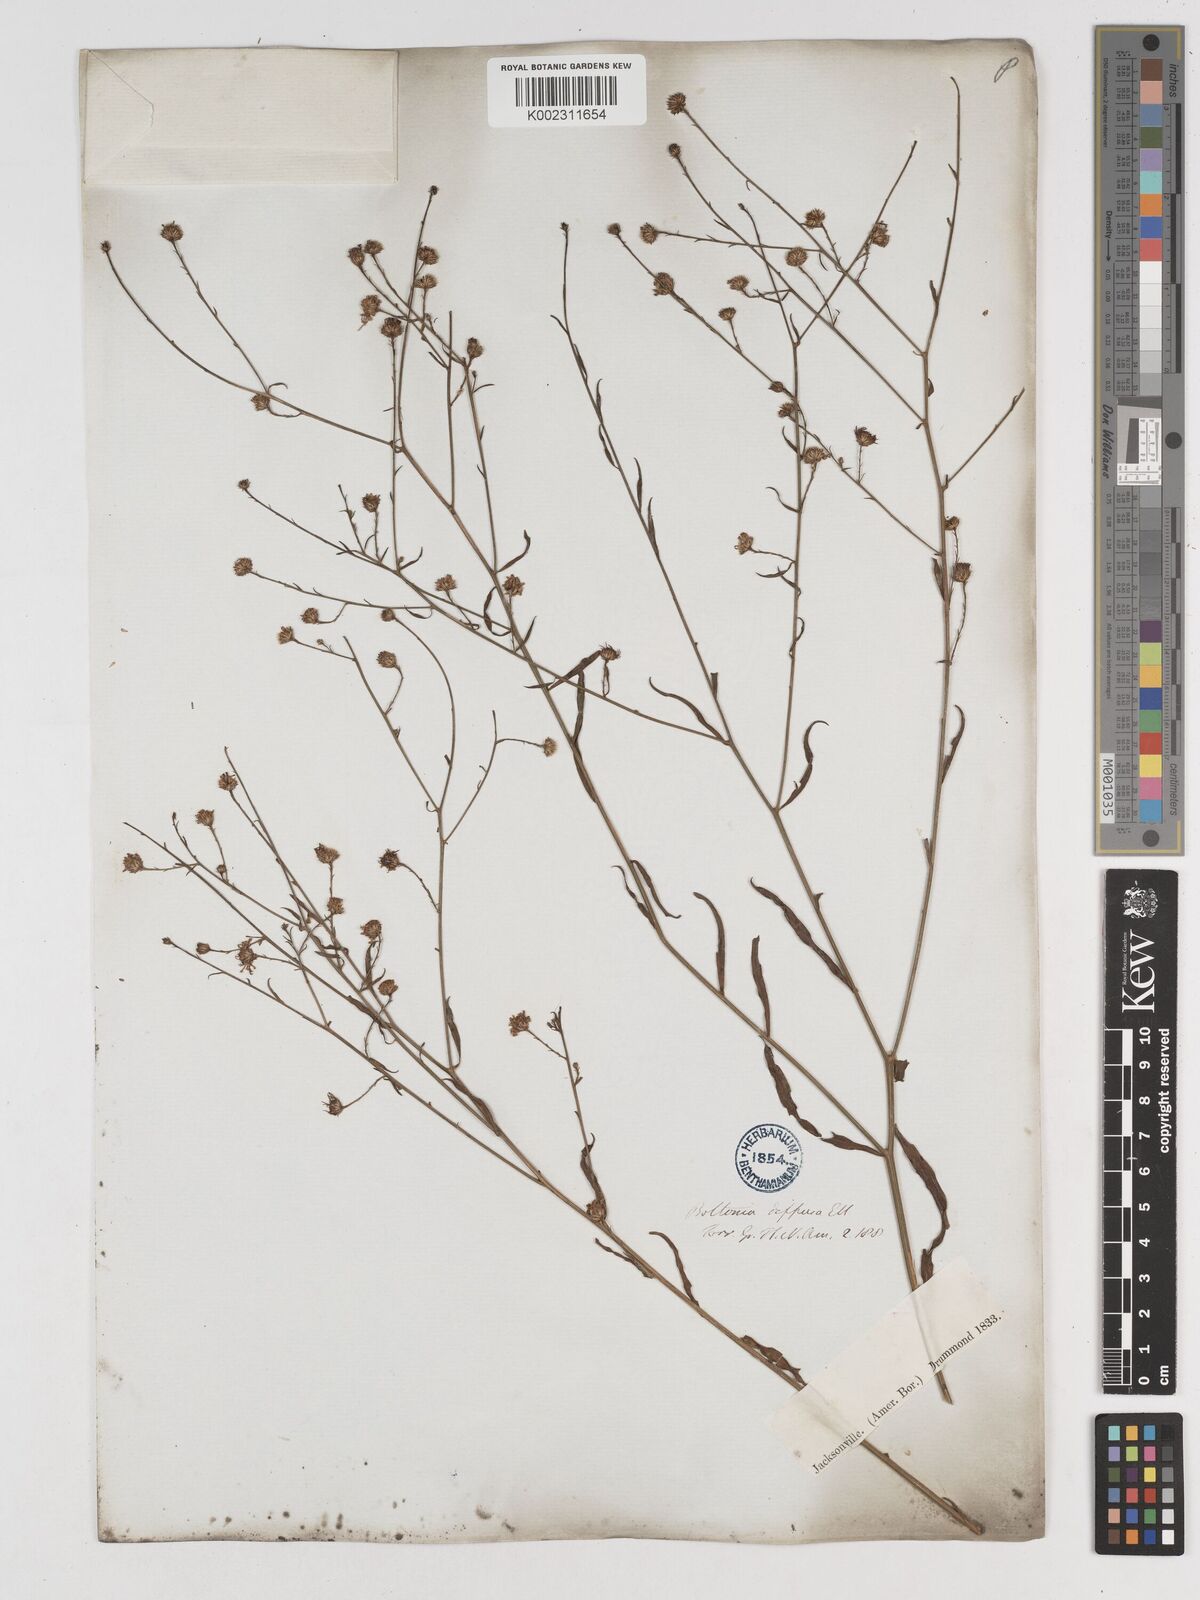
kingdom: Plantae
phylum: Tracheophyta
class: Magnoliopsida
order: Asterales
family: Asteraceae
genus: Boltonia
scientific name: Boltonia diffusa
